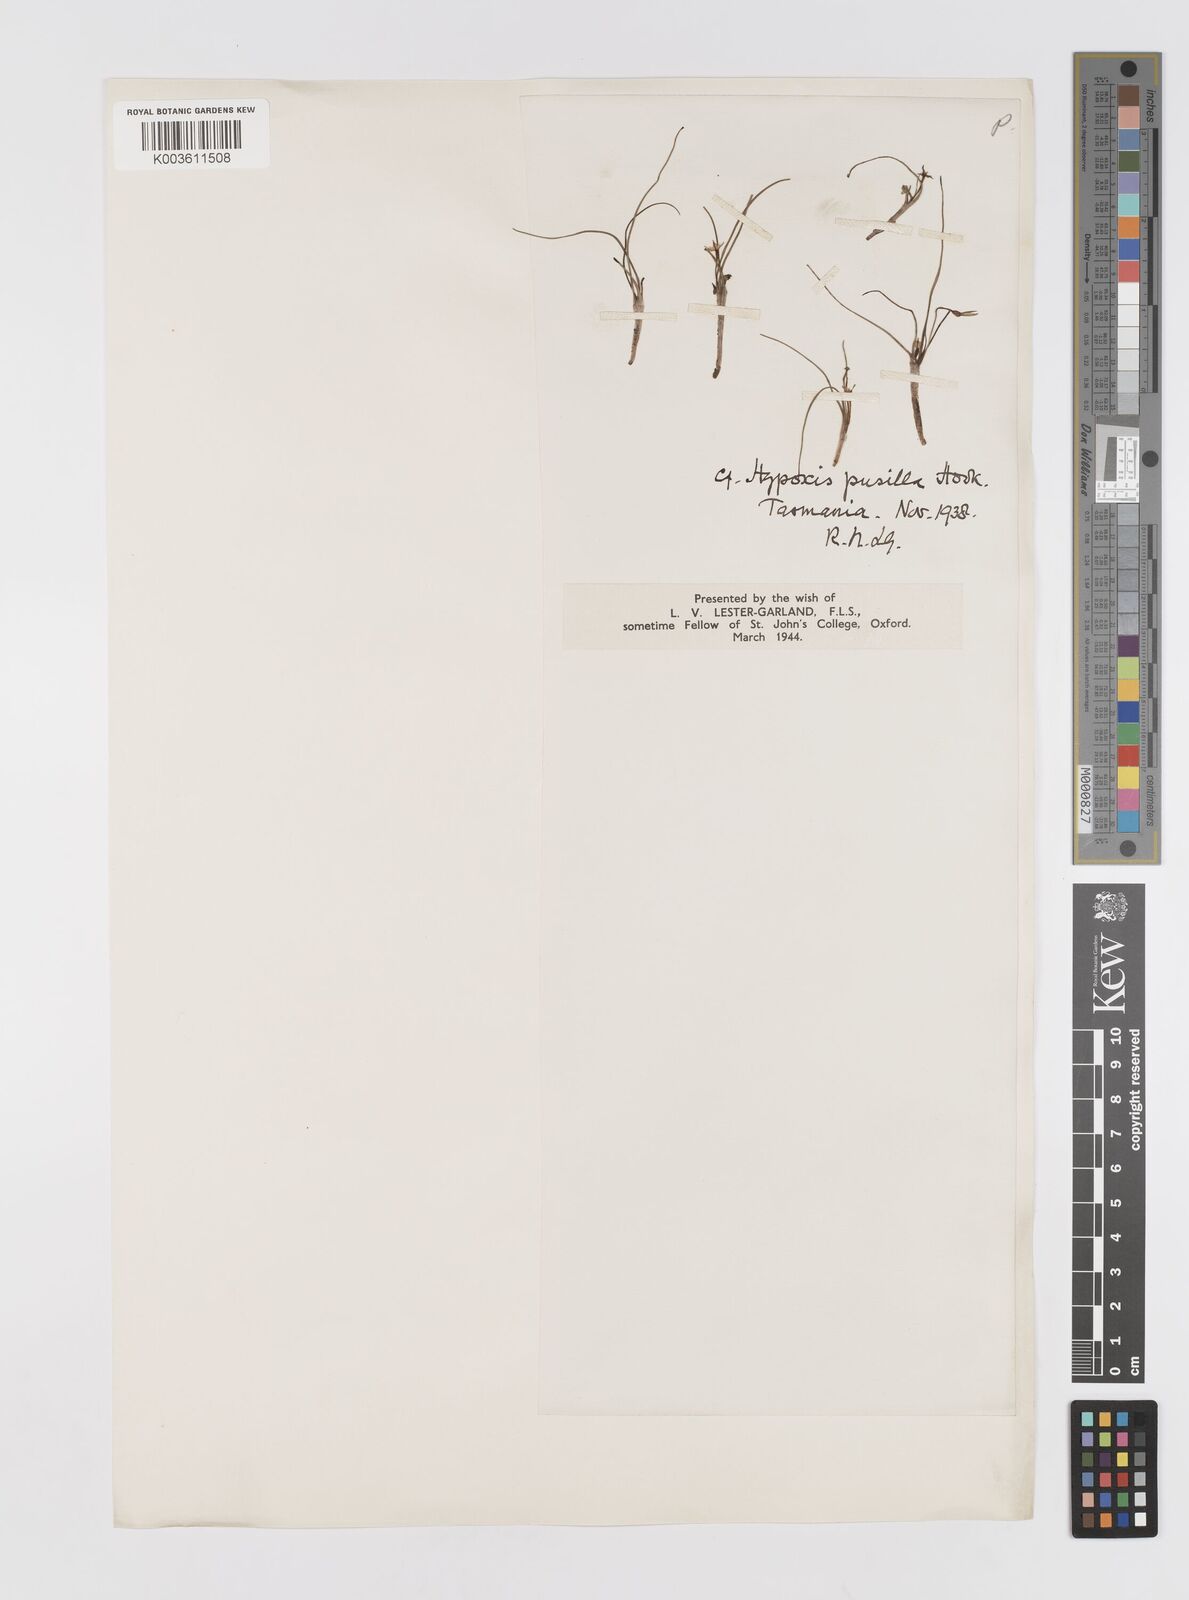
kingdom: Plantae
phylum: Tracheophyta
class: Liliopsida
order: Asparagales
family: Hypoxidaceae
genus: Pauridia
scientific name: Pauridia glabella
